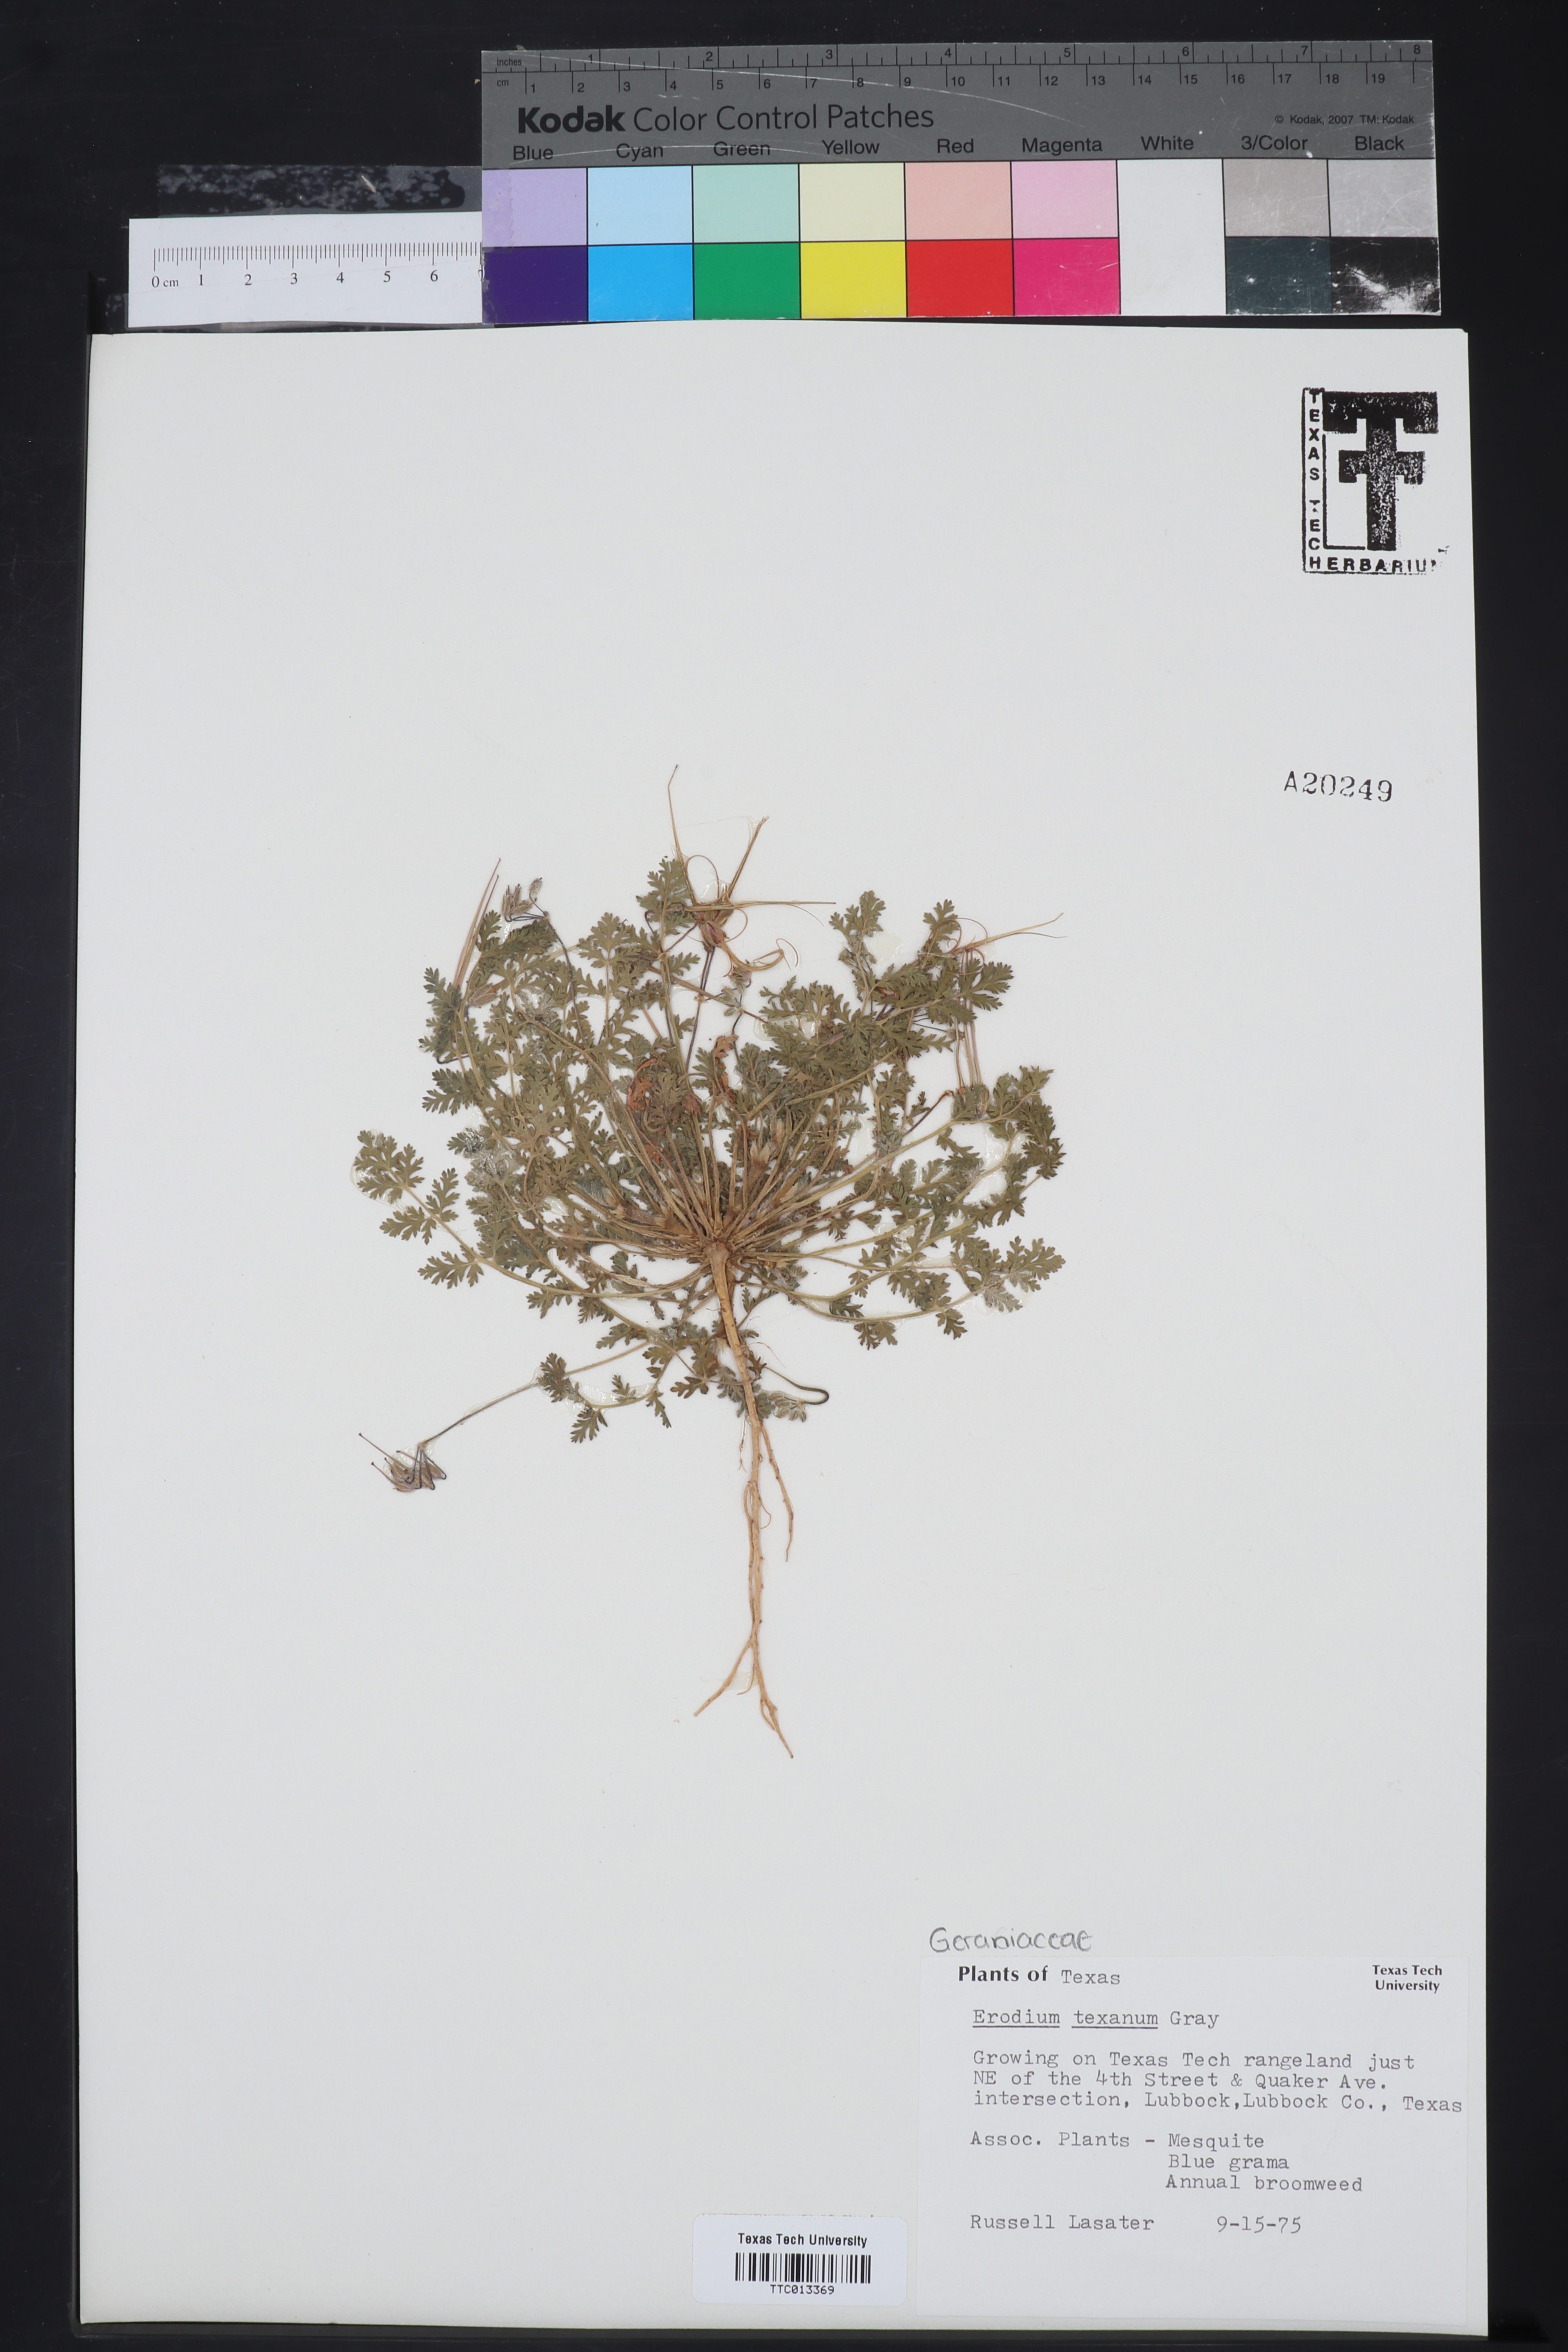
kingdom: Plantae
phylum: Tracheophyta
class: Magnoliopsida
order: Geraniales
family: Geraniaceae
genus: Erodium
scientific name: Erodium texanum
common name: Texas stork's-bill
